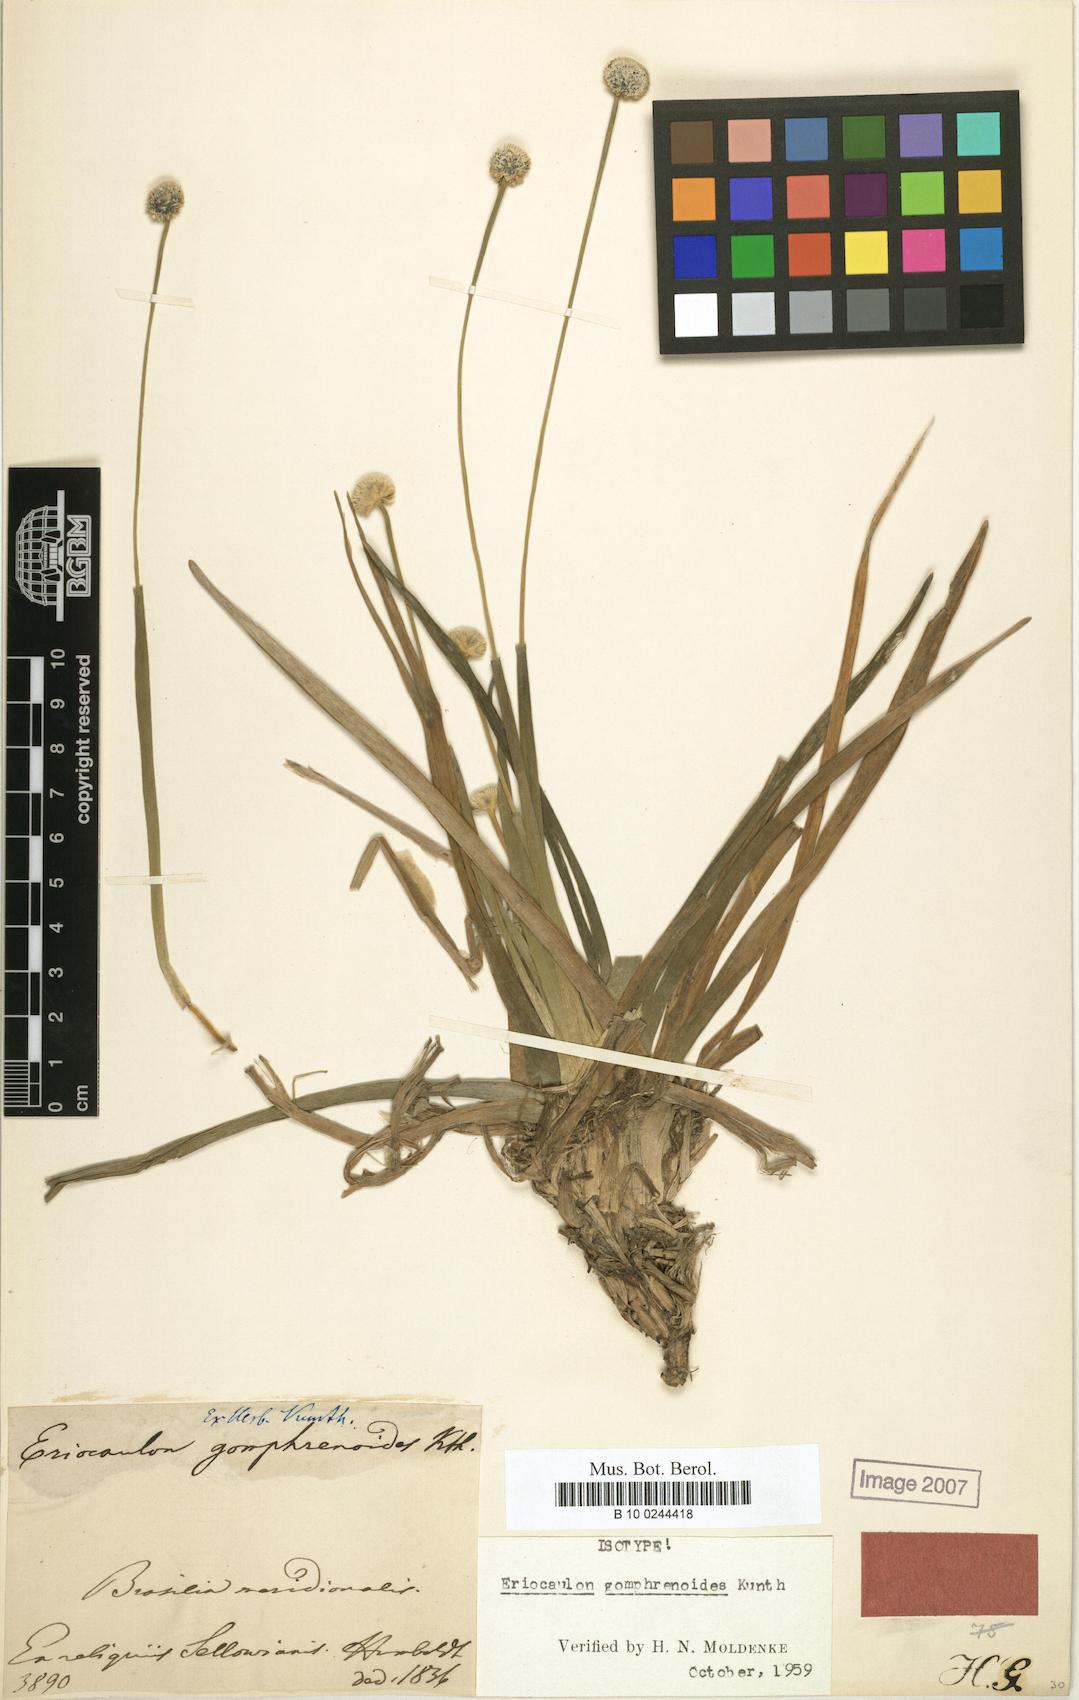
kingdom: Plantae
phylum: Tracheophyta
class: Liliopsida
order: Poales
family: Eriocaulaceae
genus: Eriocaulon
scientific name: Eriocaulon gomphrenoides
